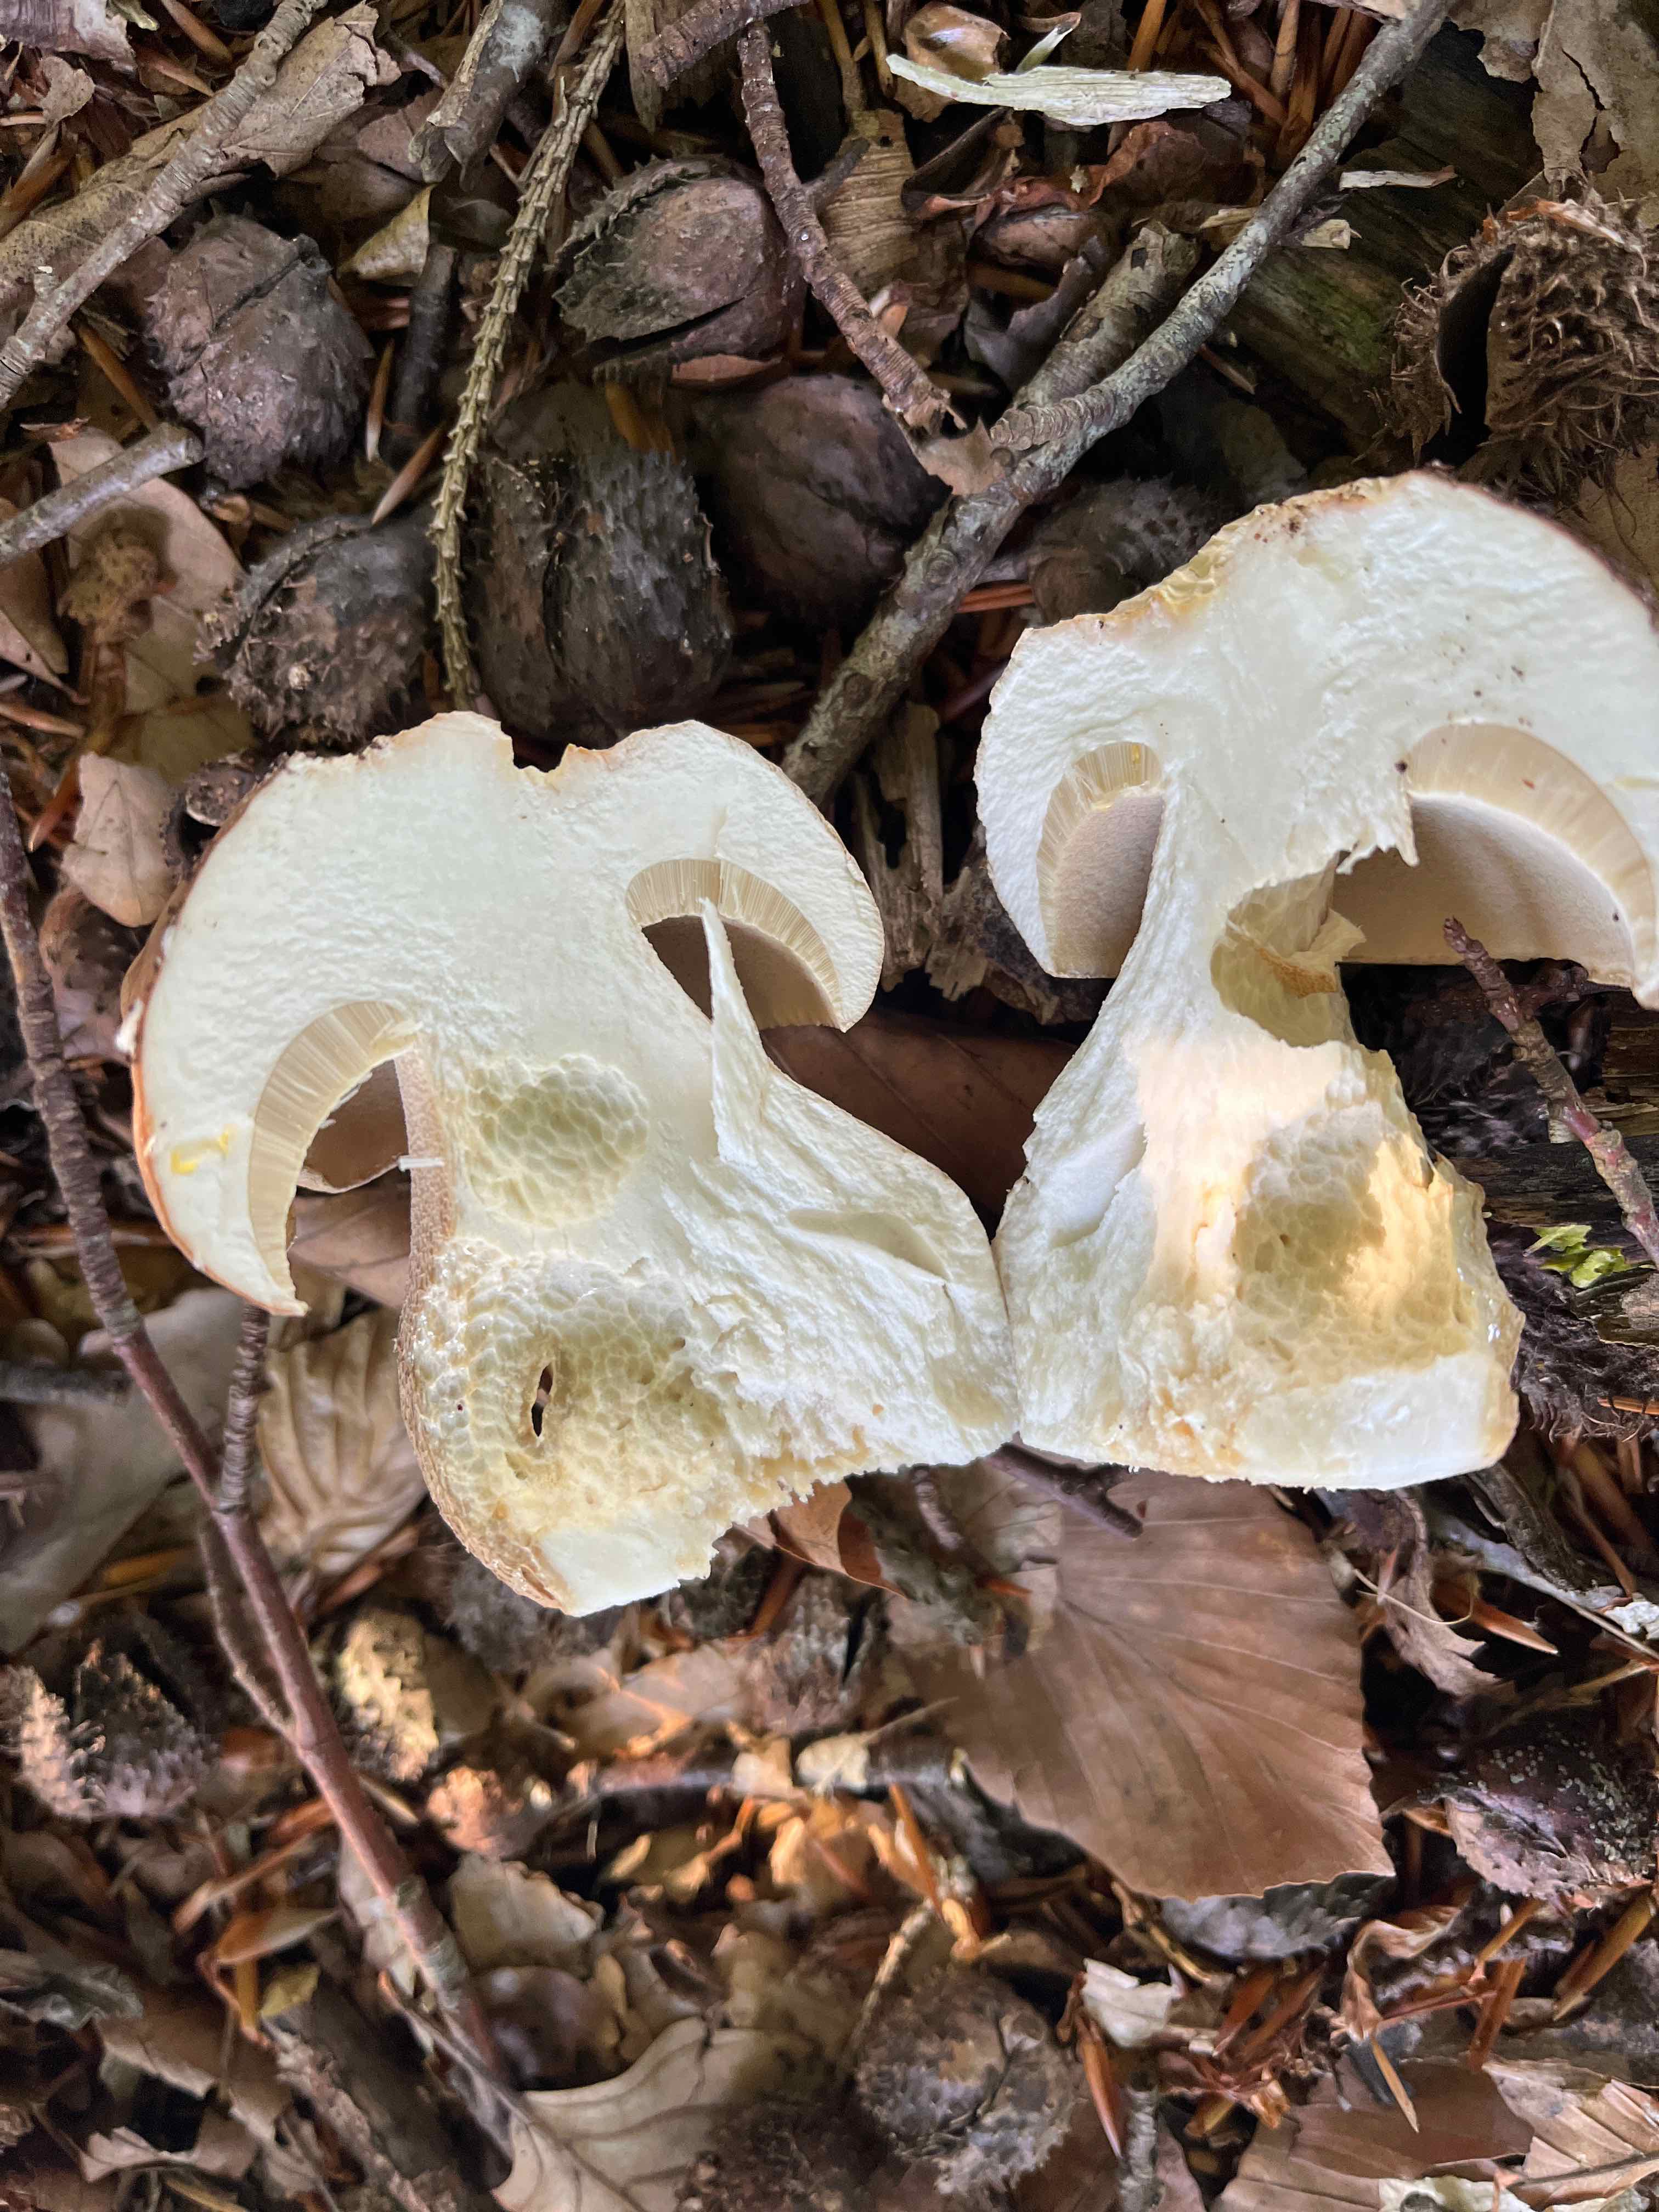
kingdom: Fungi
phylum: Basidiomycota
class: Agaricomycetes
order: Boletales
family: Boletaceae
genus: Boletus
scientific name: Boletus edulis
